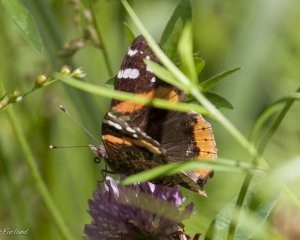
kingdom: Animalia
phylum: Arthropoda
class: Insecta
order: Lepidoptera
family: Nymphalidae
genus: Vanessa
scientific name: Vanessa atalanta
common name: Red Admiral
